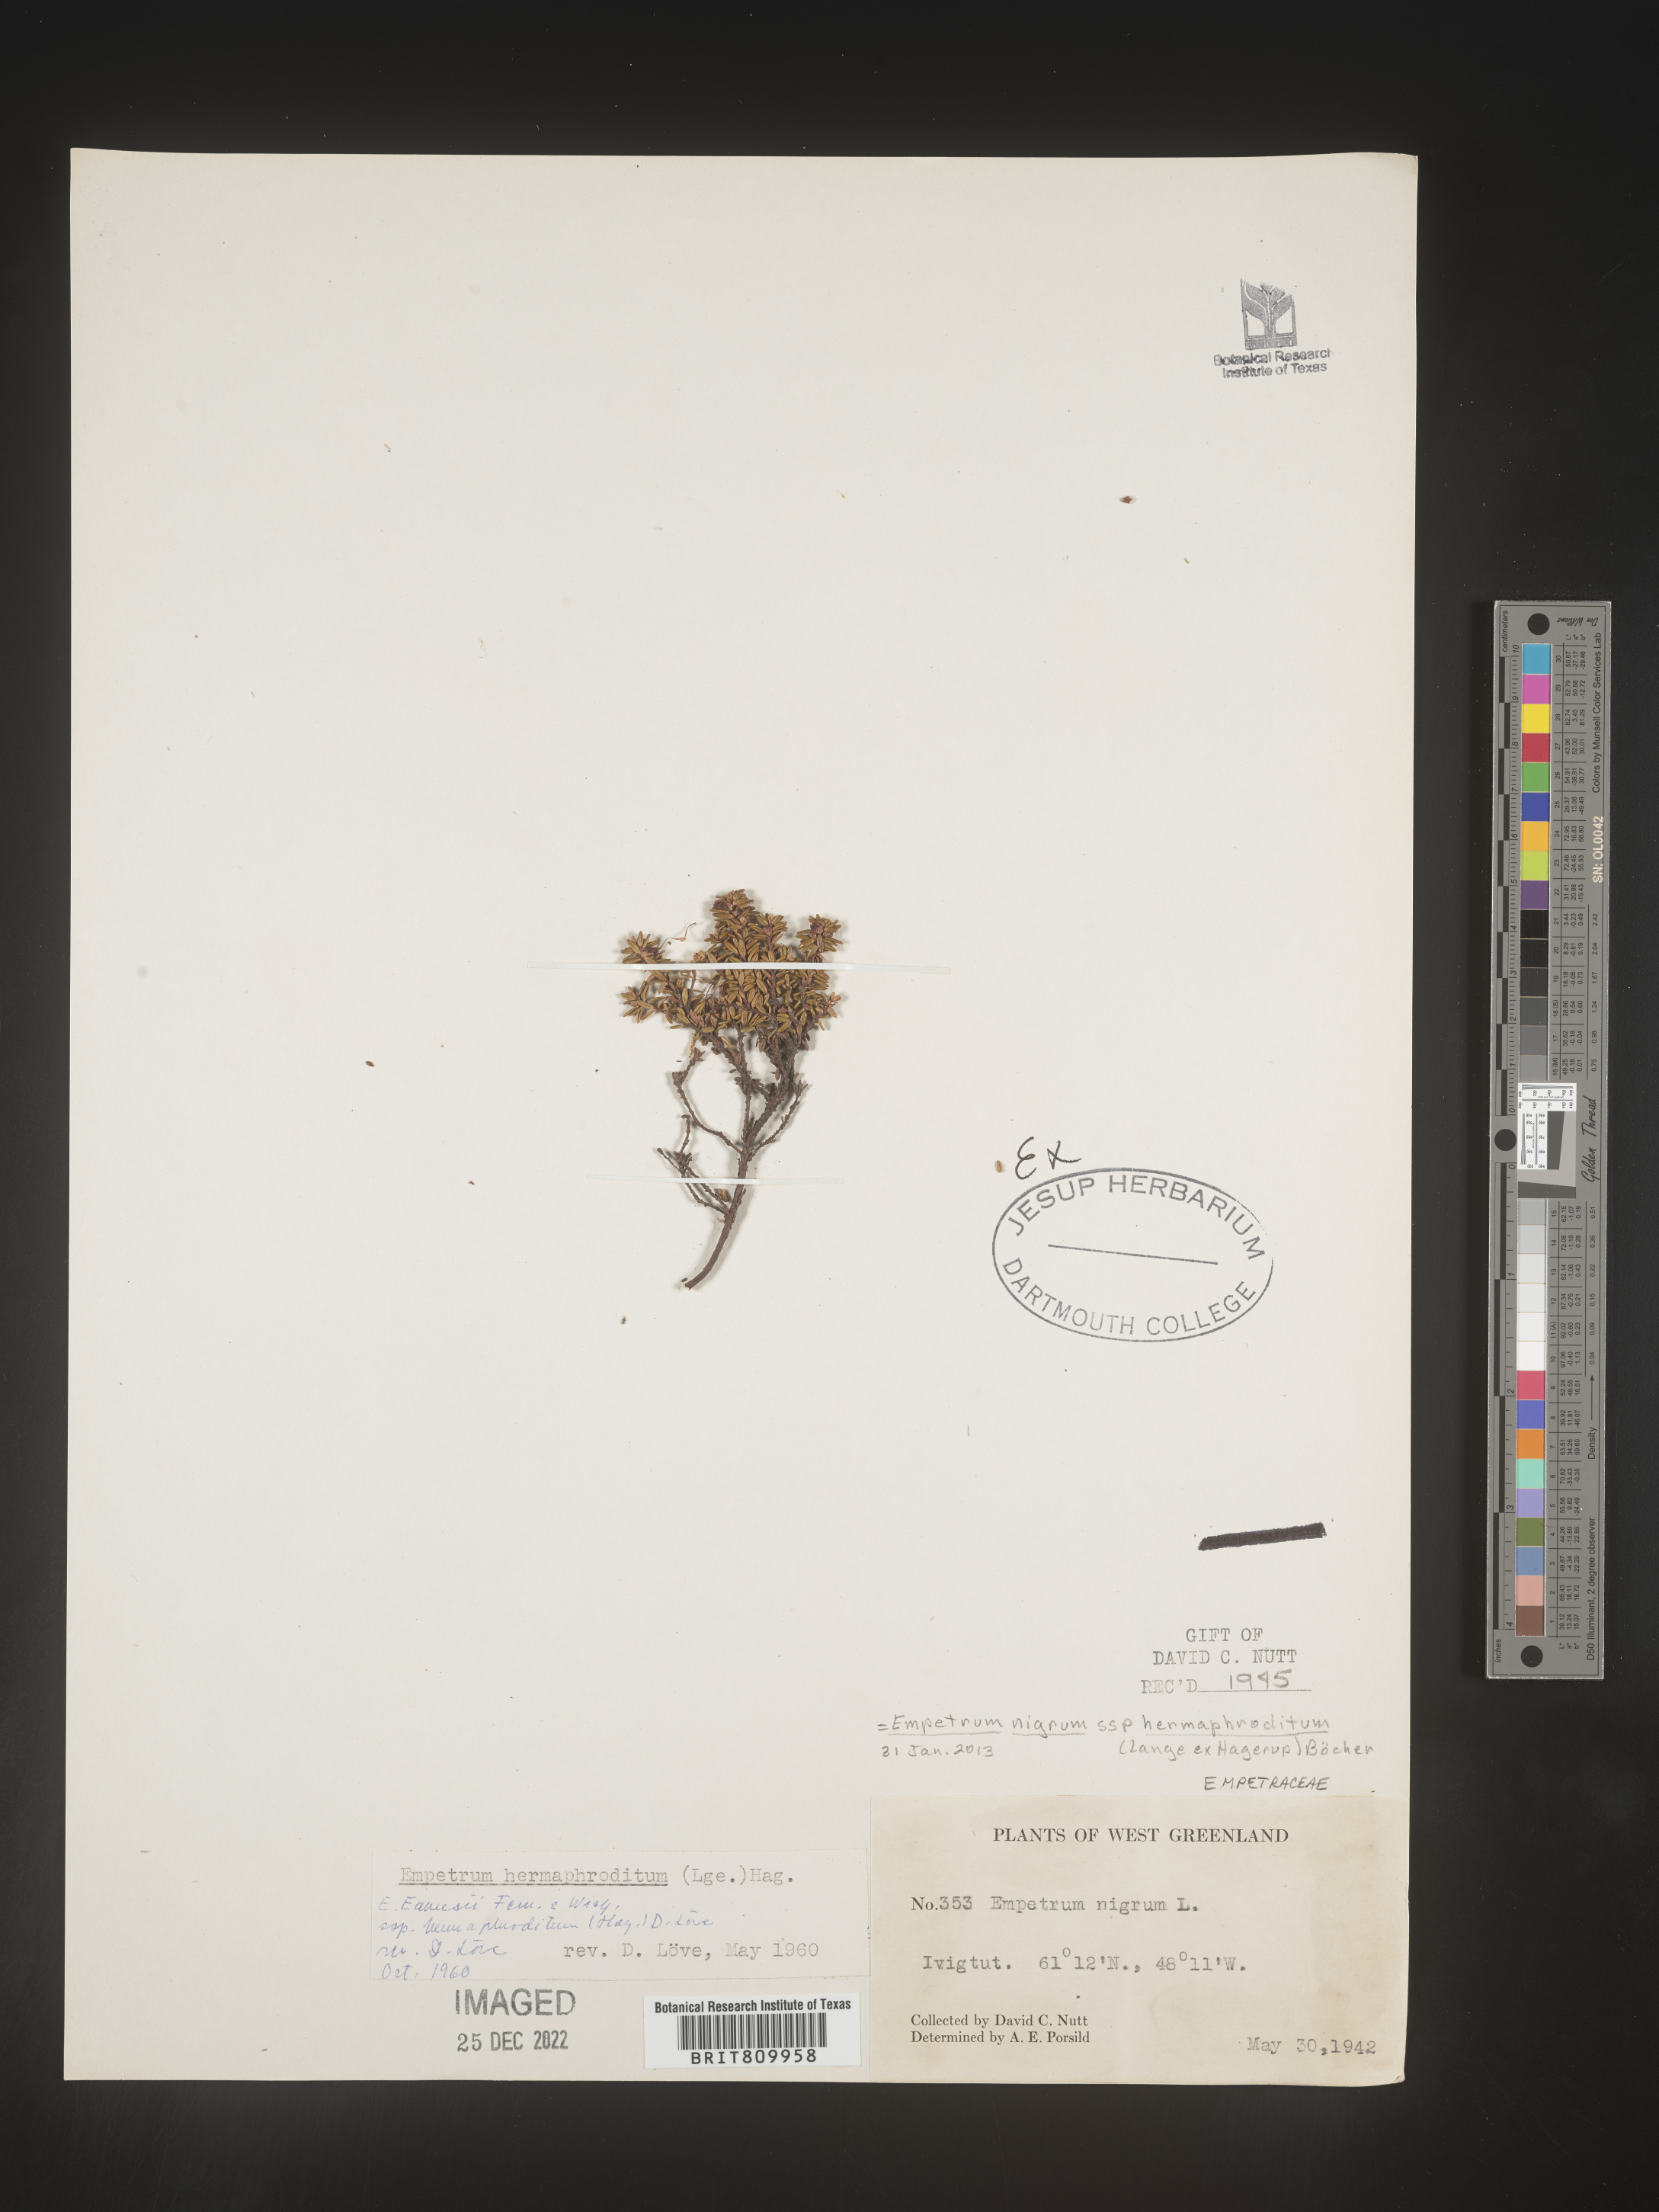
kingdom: Plantae
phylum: Tracheophyta
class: Magnoliopsida
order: Ericales
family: Ericaceae
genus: Empetrum
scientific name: Empetrum
